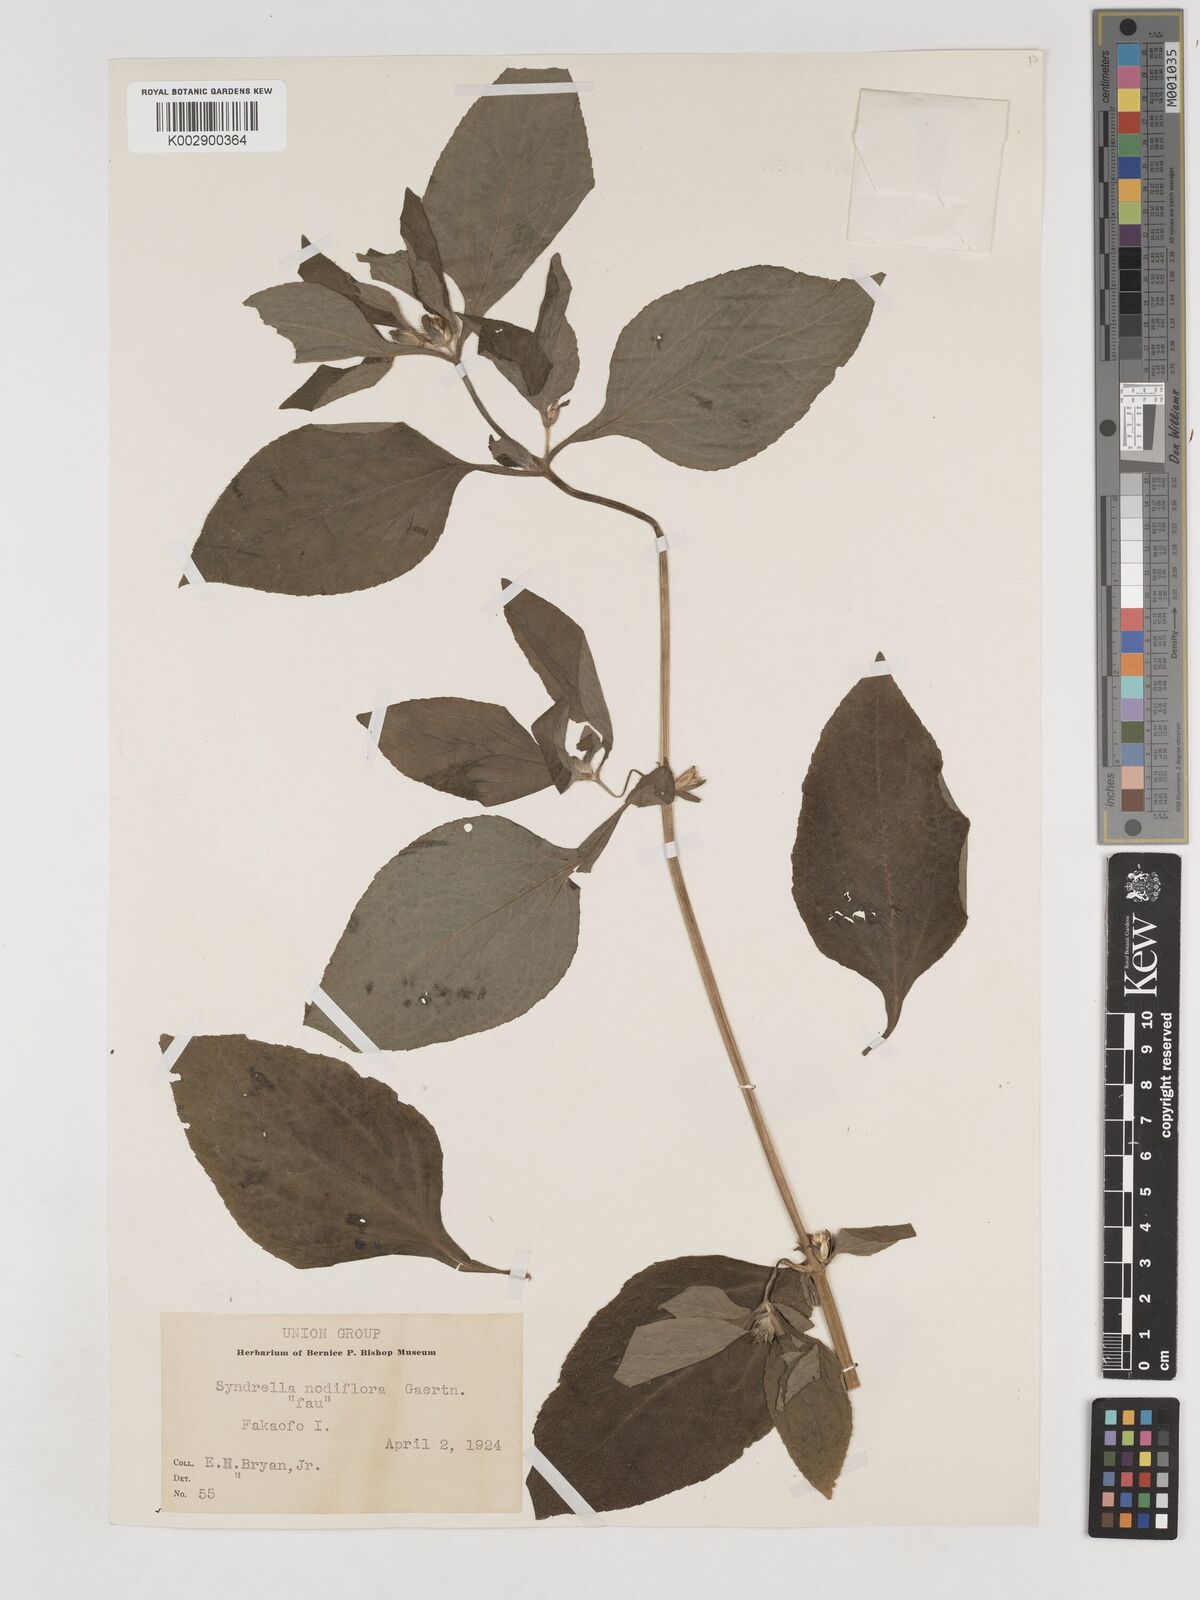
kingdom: Plantae
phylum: Tracheophyta
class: Magnoliopsida
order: Asterales
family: Asteraceae
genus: Synedrella
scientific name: Synedrella nodiflora
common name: Nodeweed
